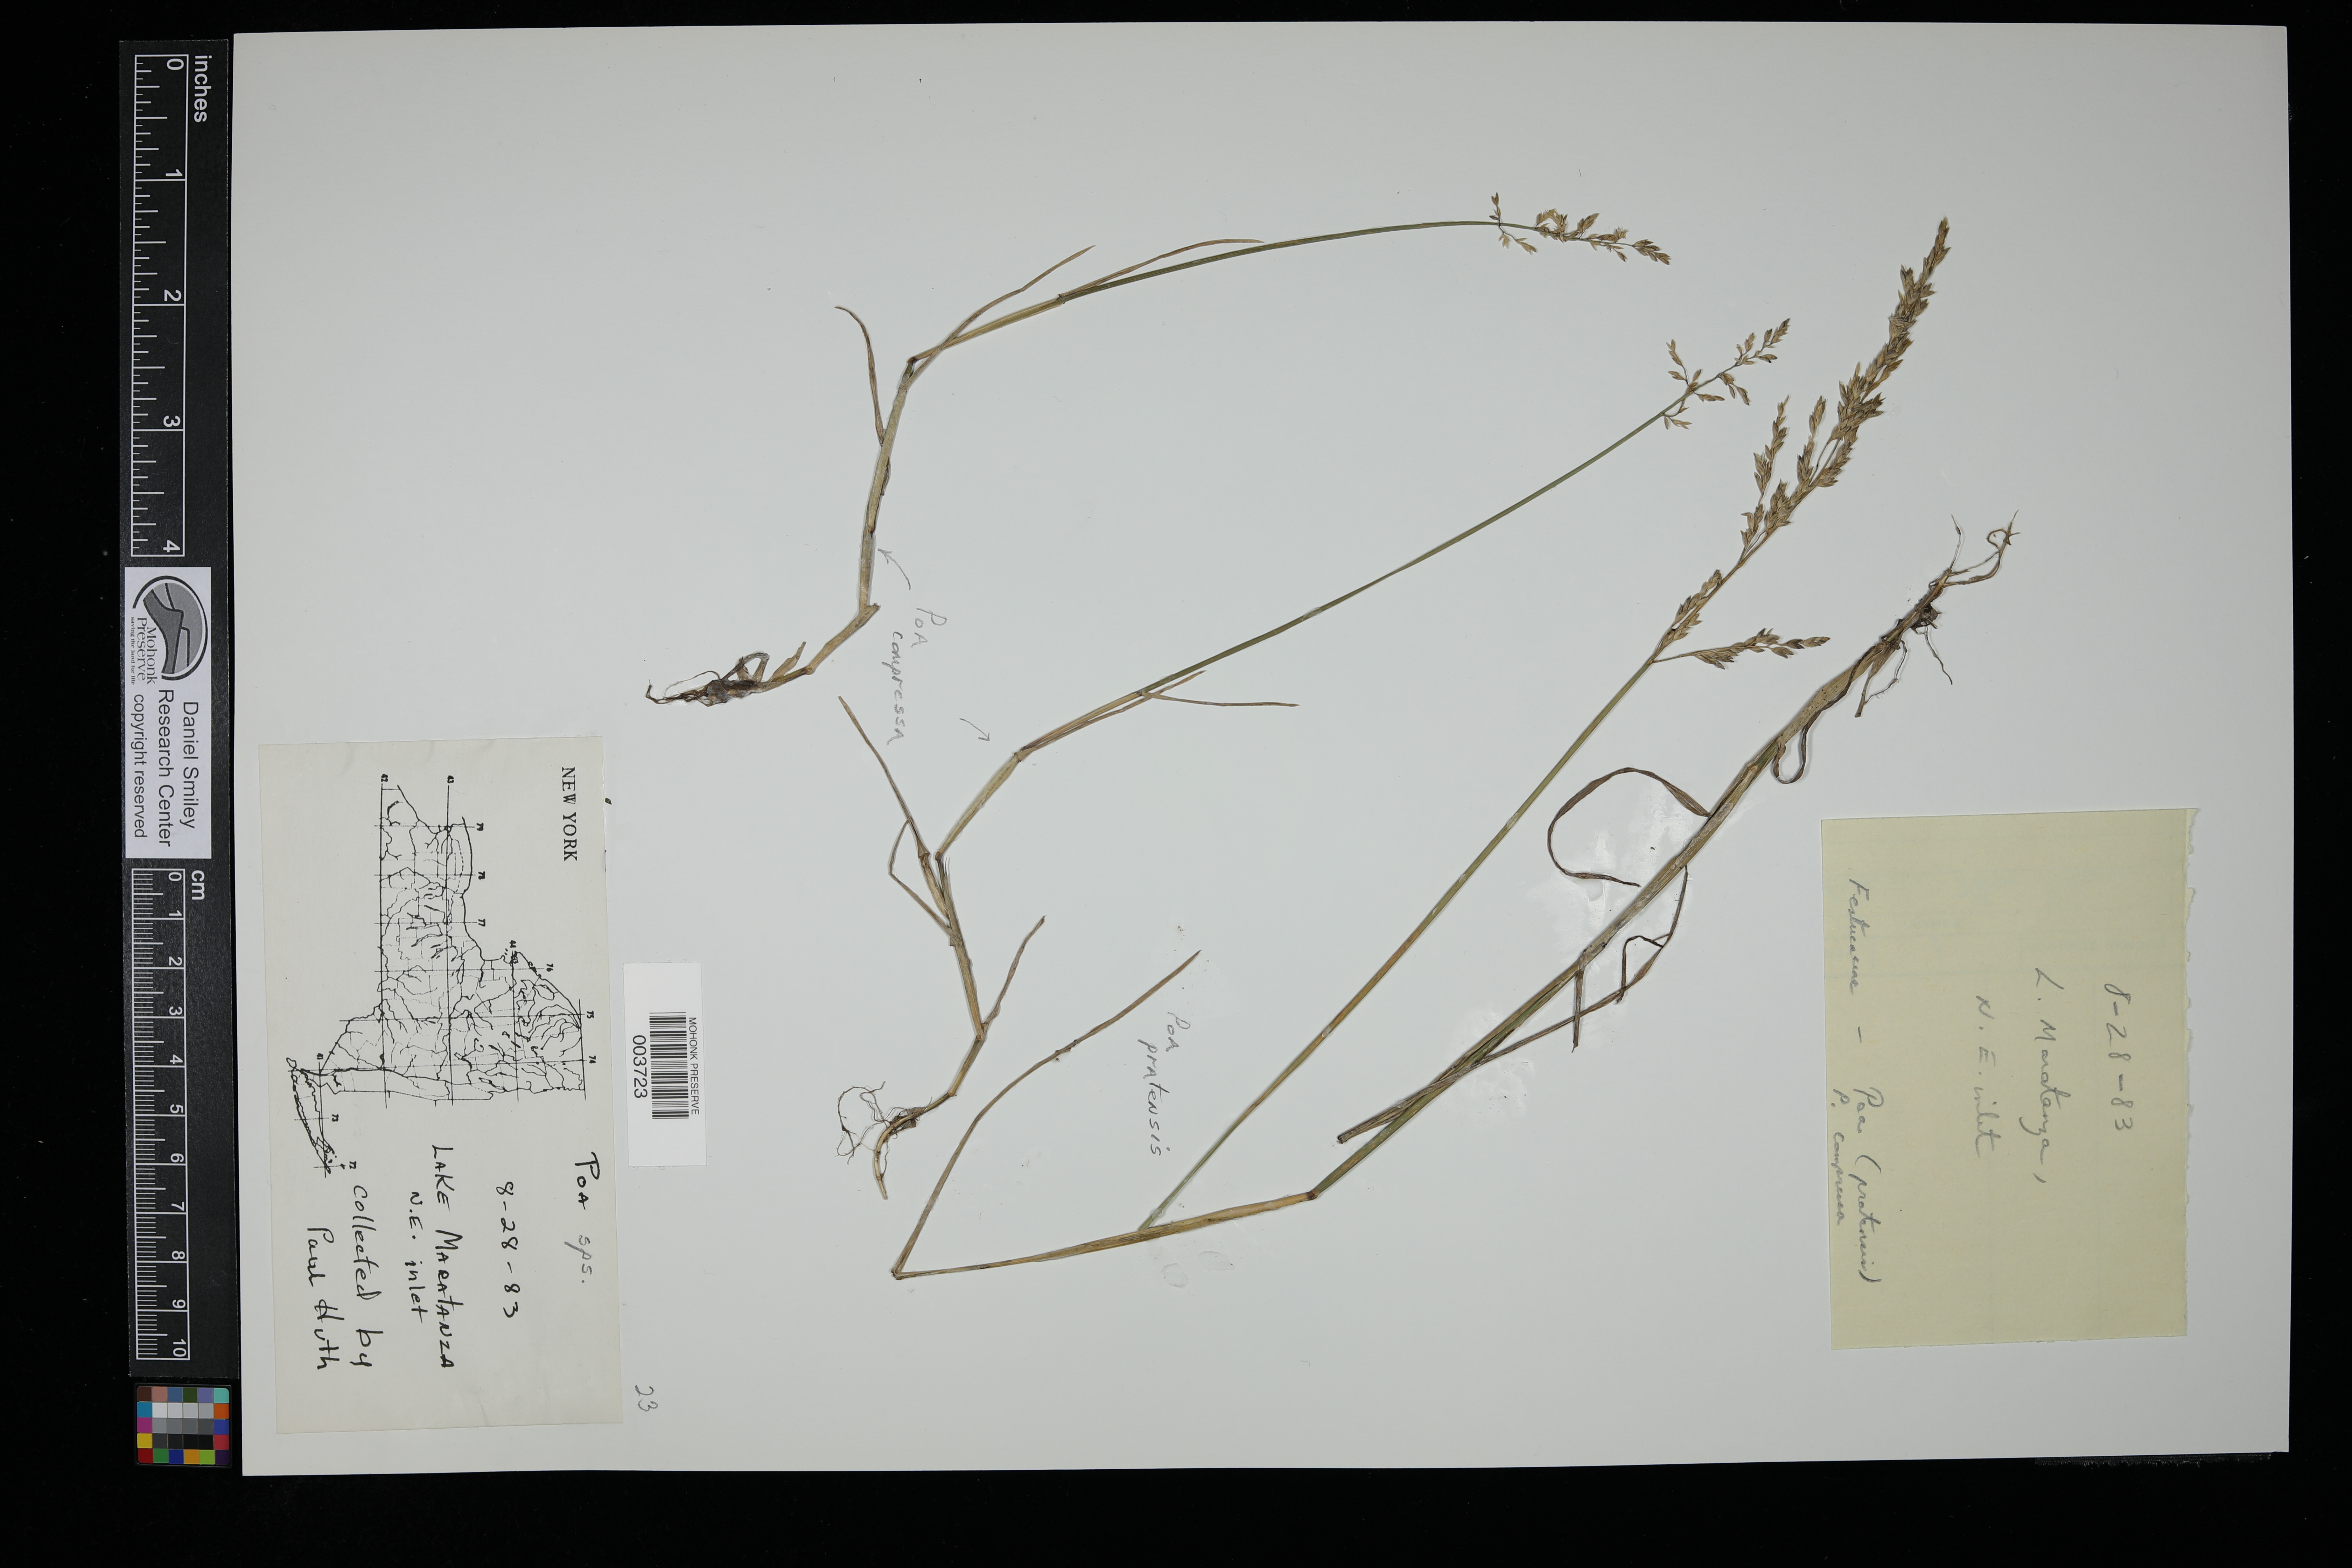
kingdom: Plantae
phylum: Tracheophyta
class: Liliopsida
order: Poales
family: Poaceae
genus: Poa
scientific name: Poa
